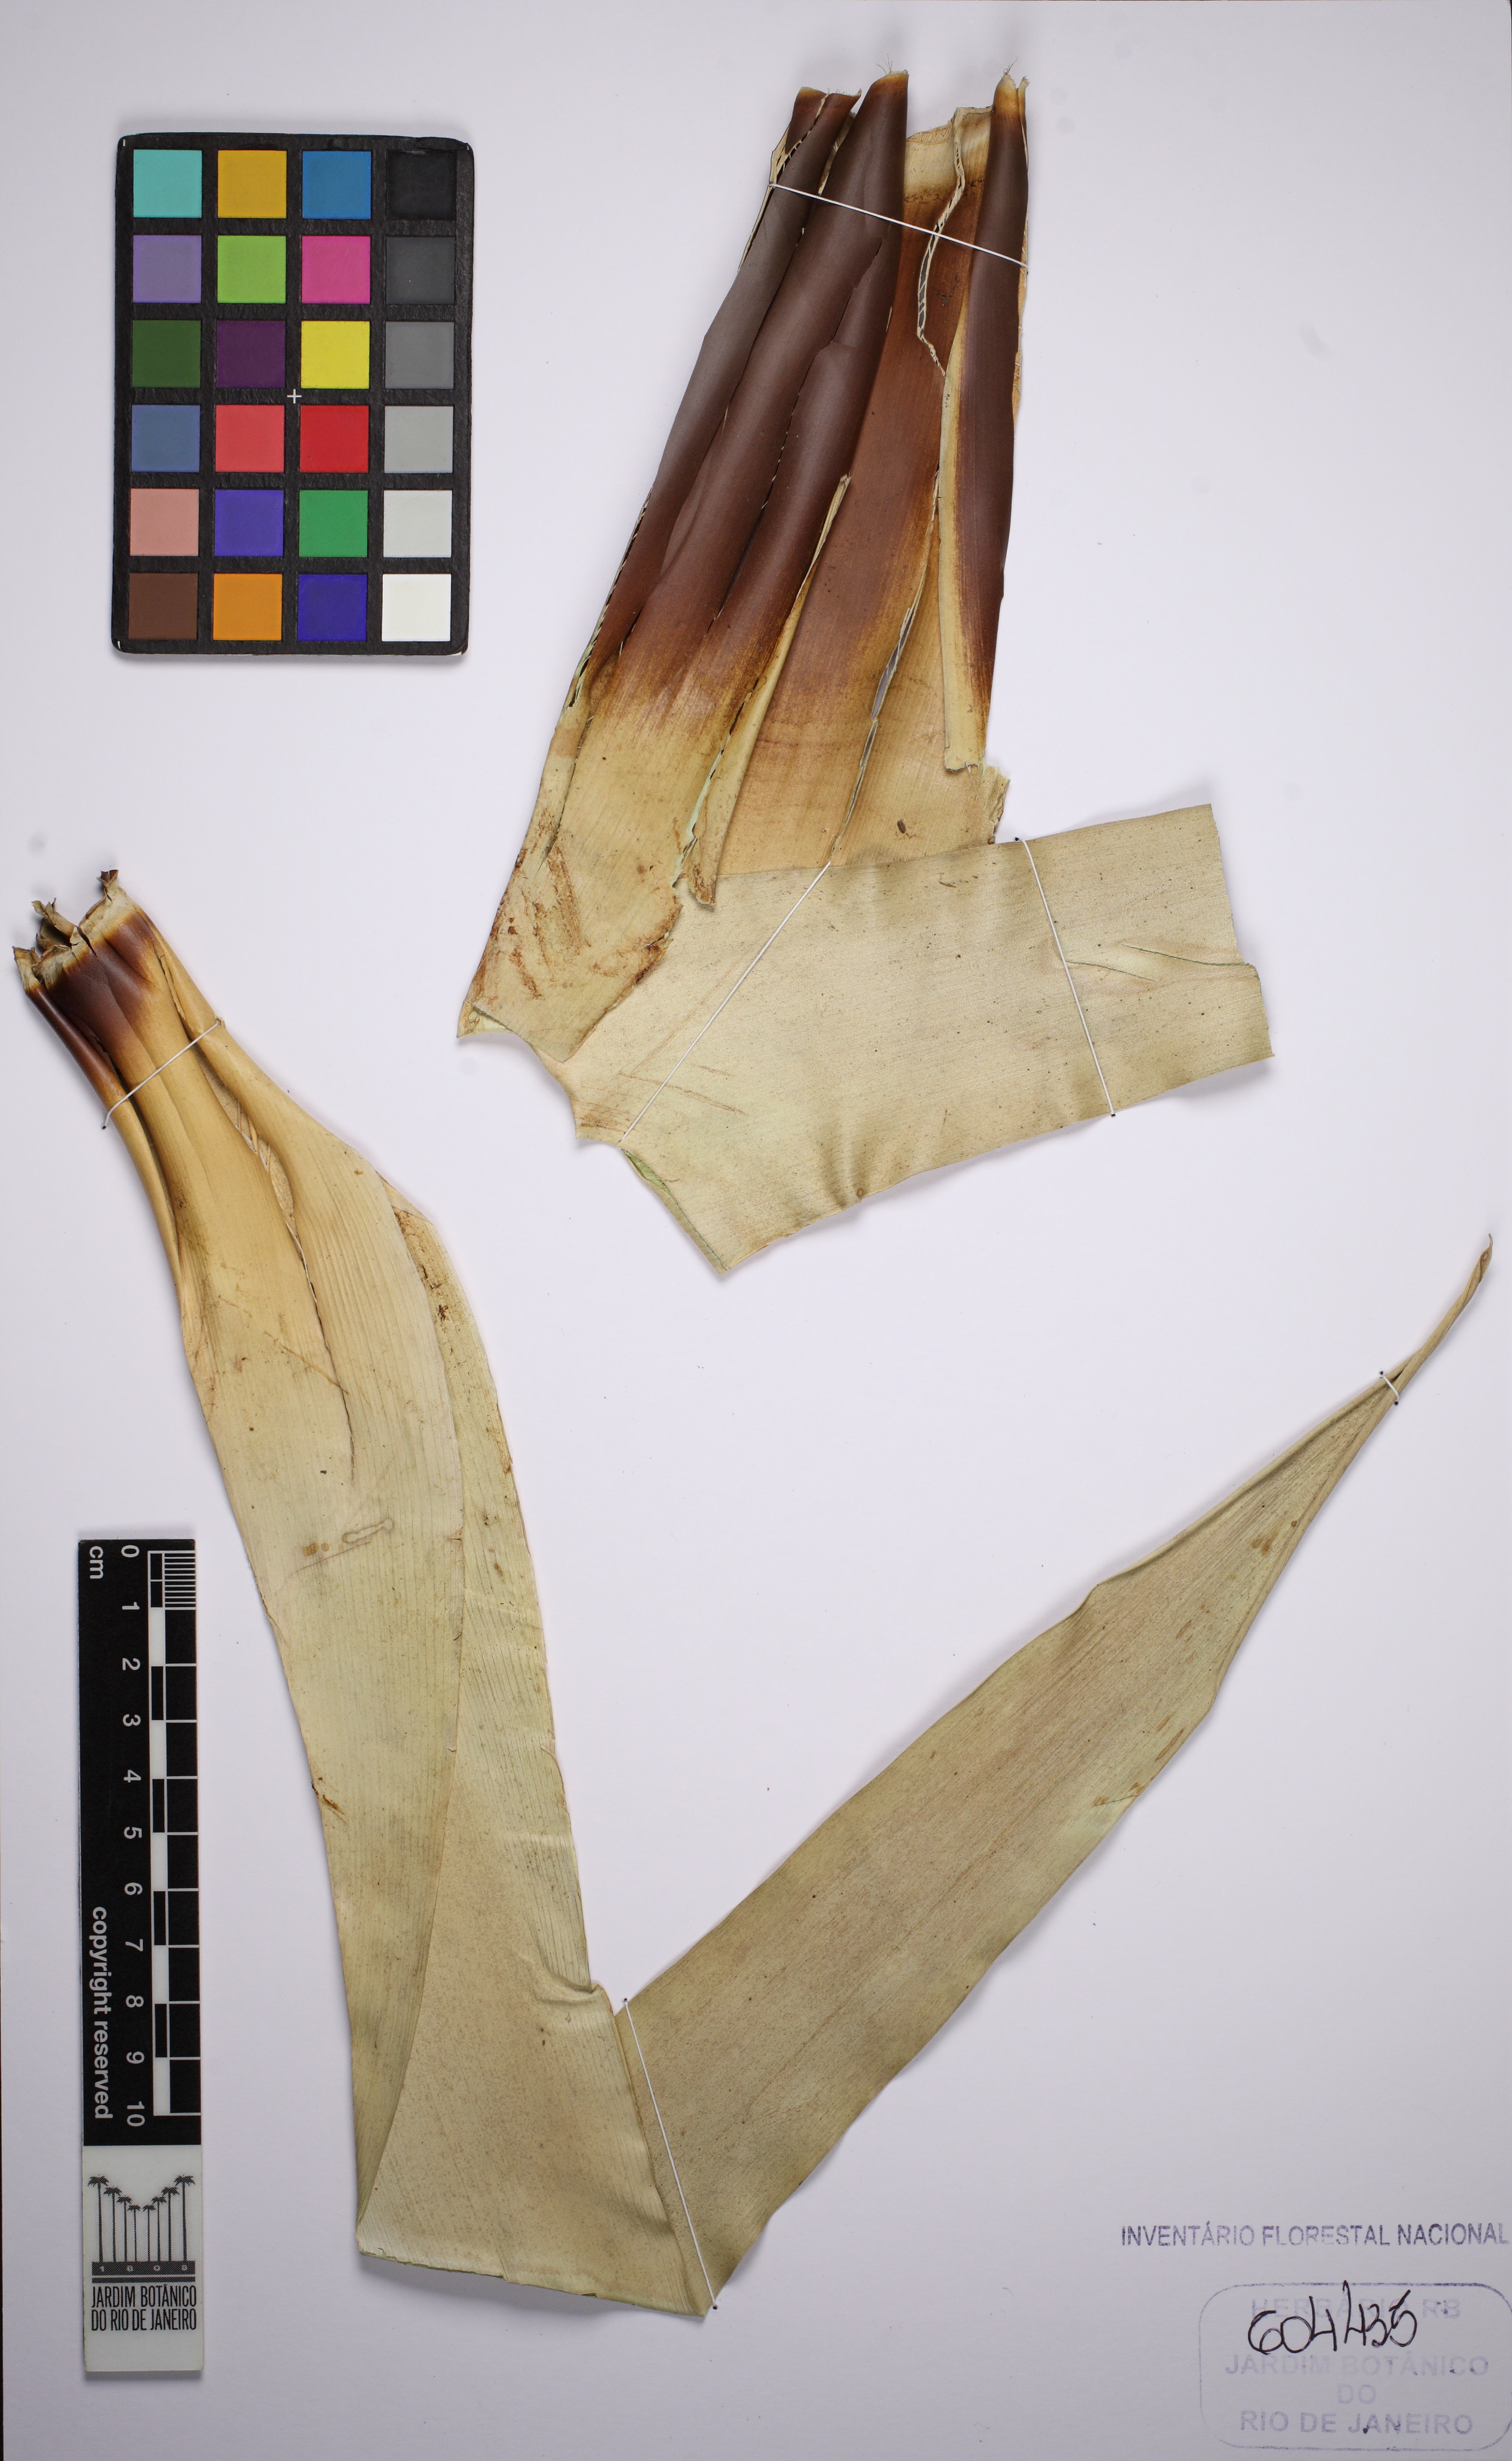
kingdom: Plantae
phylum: Tracheophyta
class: Liliopsida
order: Poales
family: Bromeliaceae
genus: Vriesea
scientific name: Vriesea neoglutinosa
